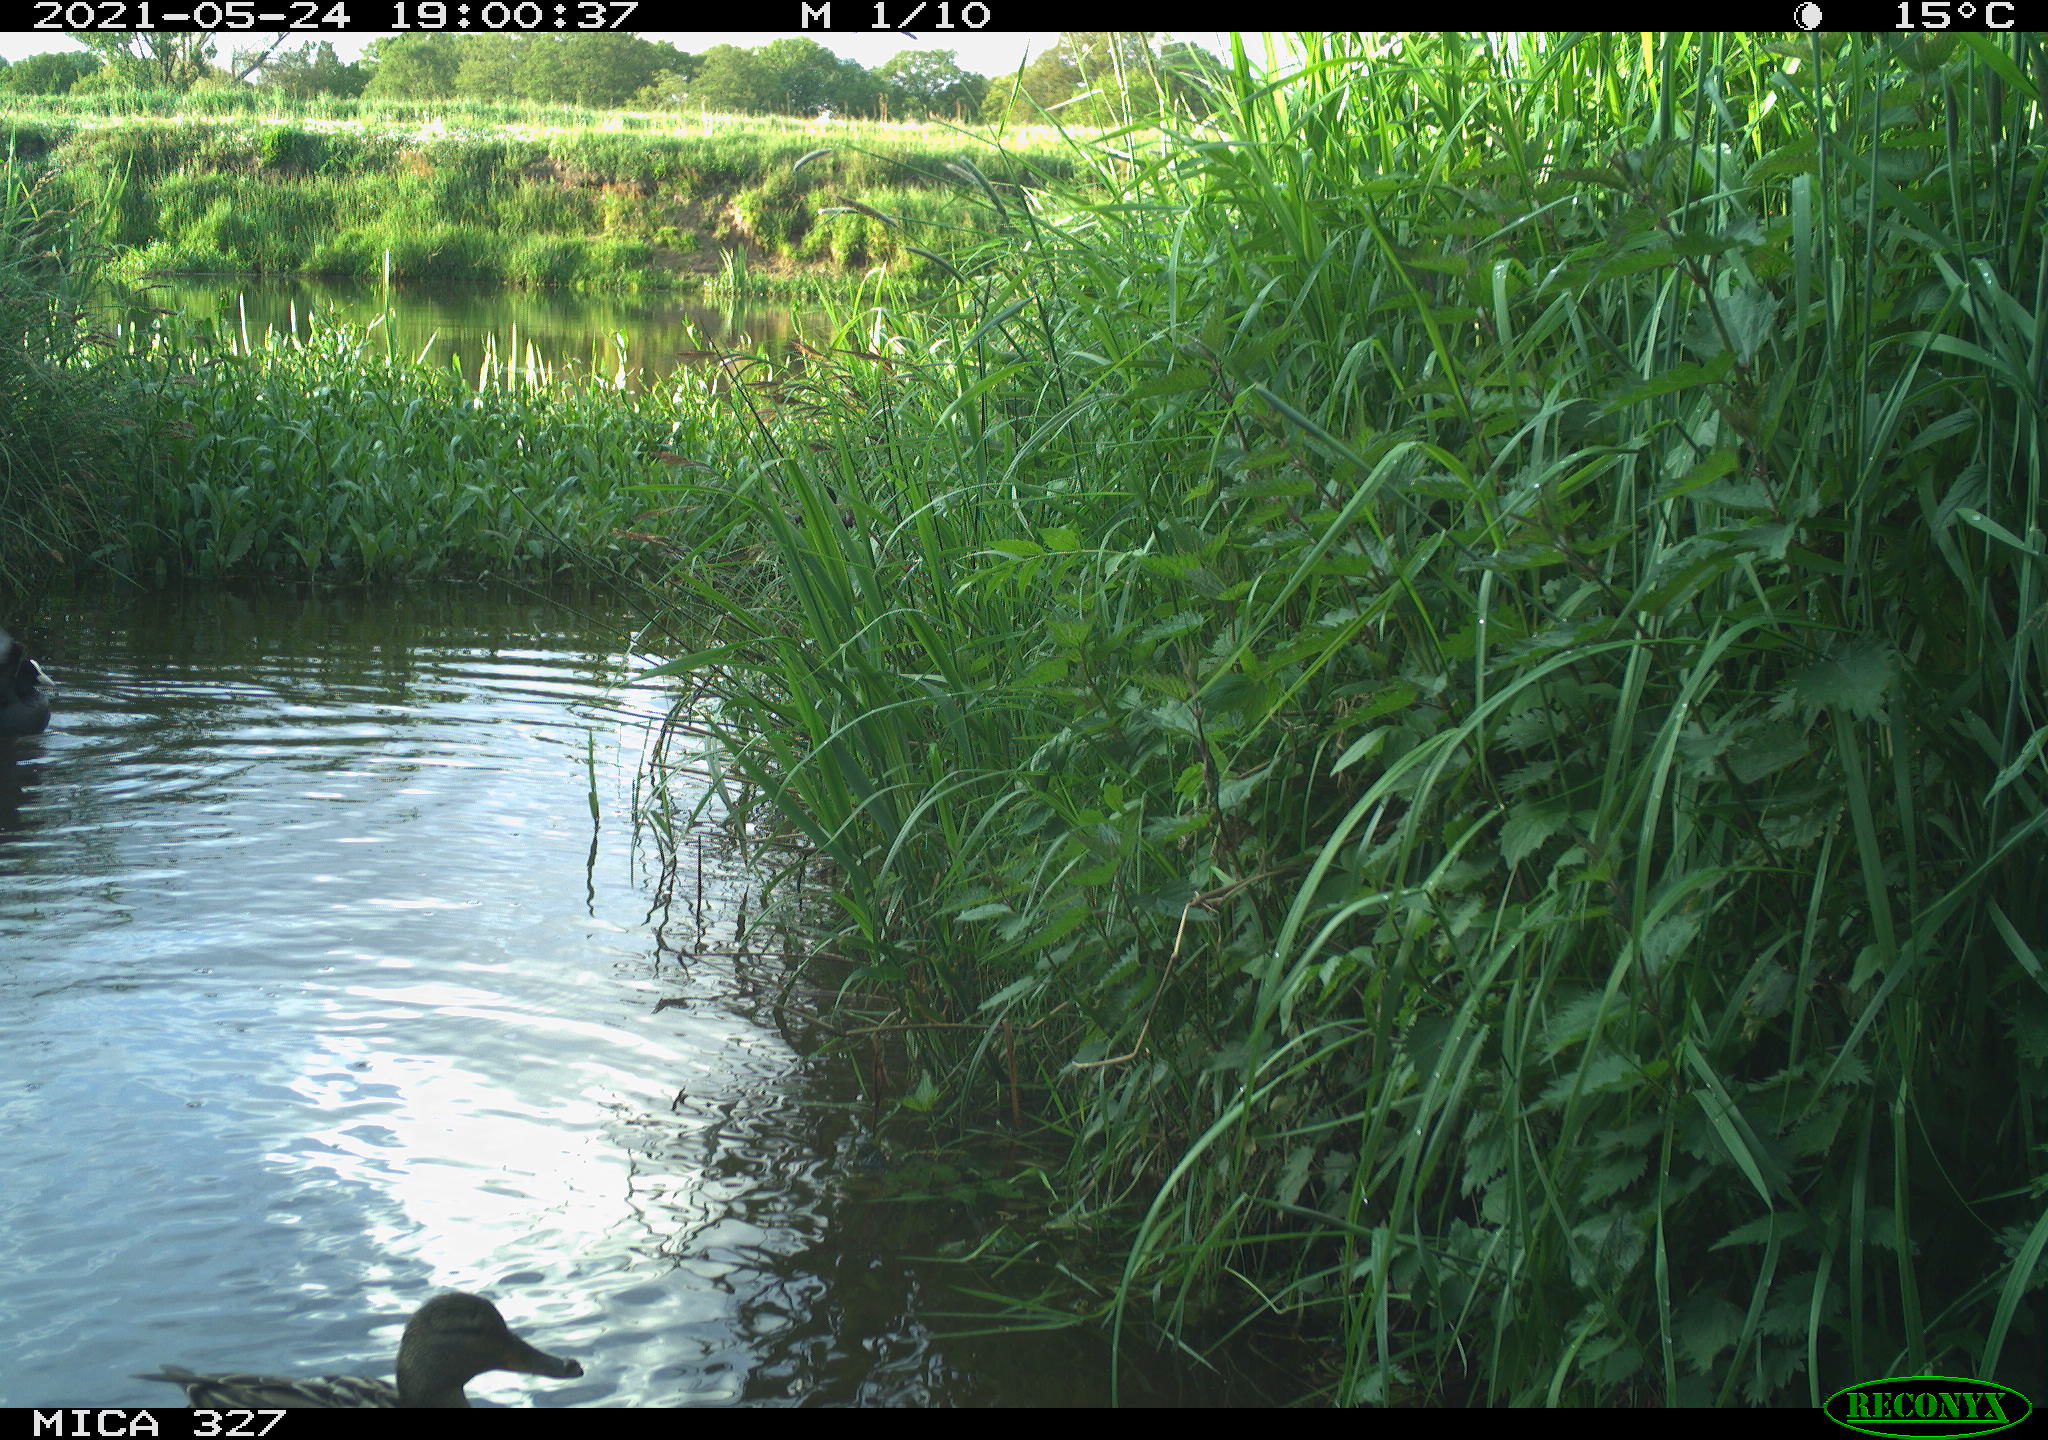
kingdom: Animalia
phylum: Chordata
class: Aves
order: Gruiformes
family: Rallidae
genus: Fulica
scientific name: Fulica atra
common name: Eurasian coot
